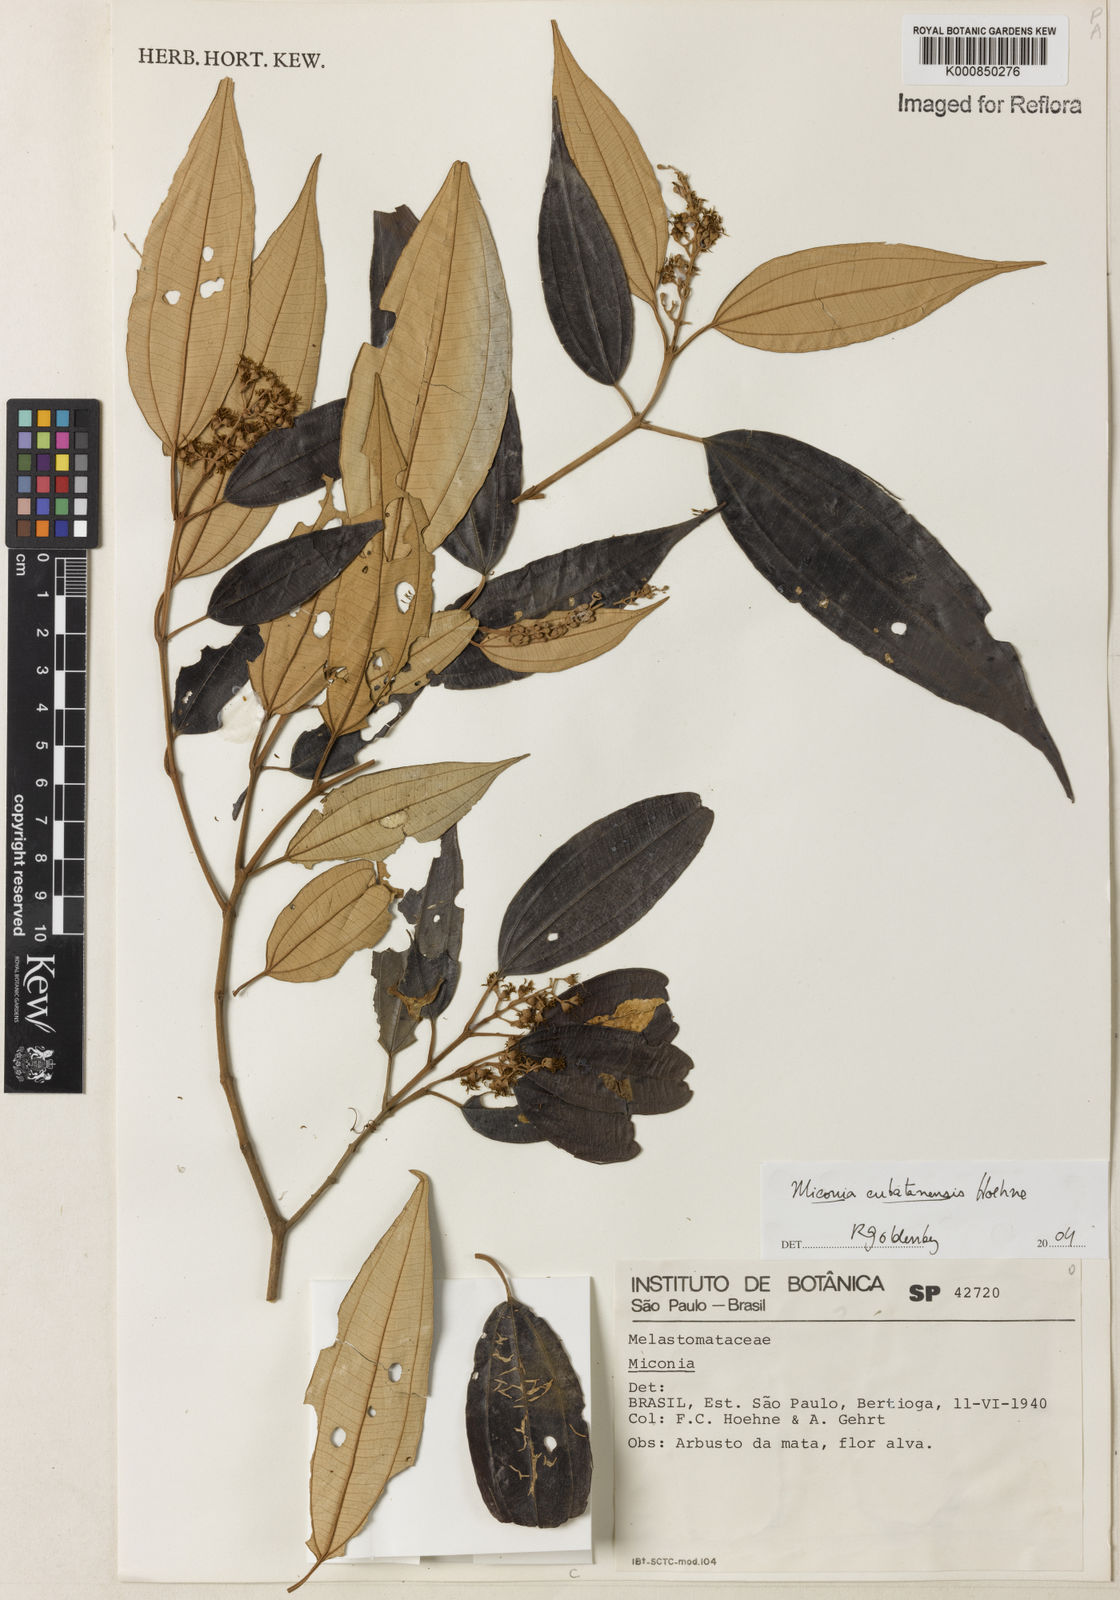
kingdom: Plantae
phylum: Tracheophyta
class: Magnoliopsida
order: Myrtales
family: Melastomataceae
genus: Miconia
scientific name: Miconia cubatanensis
